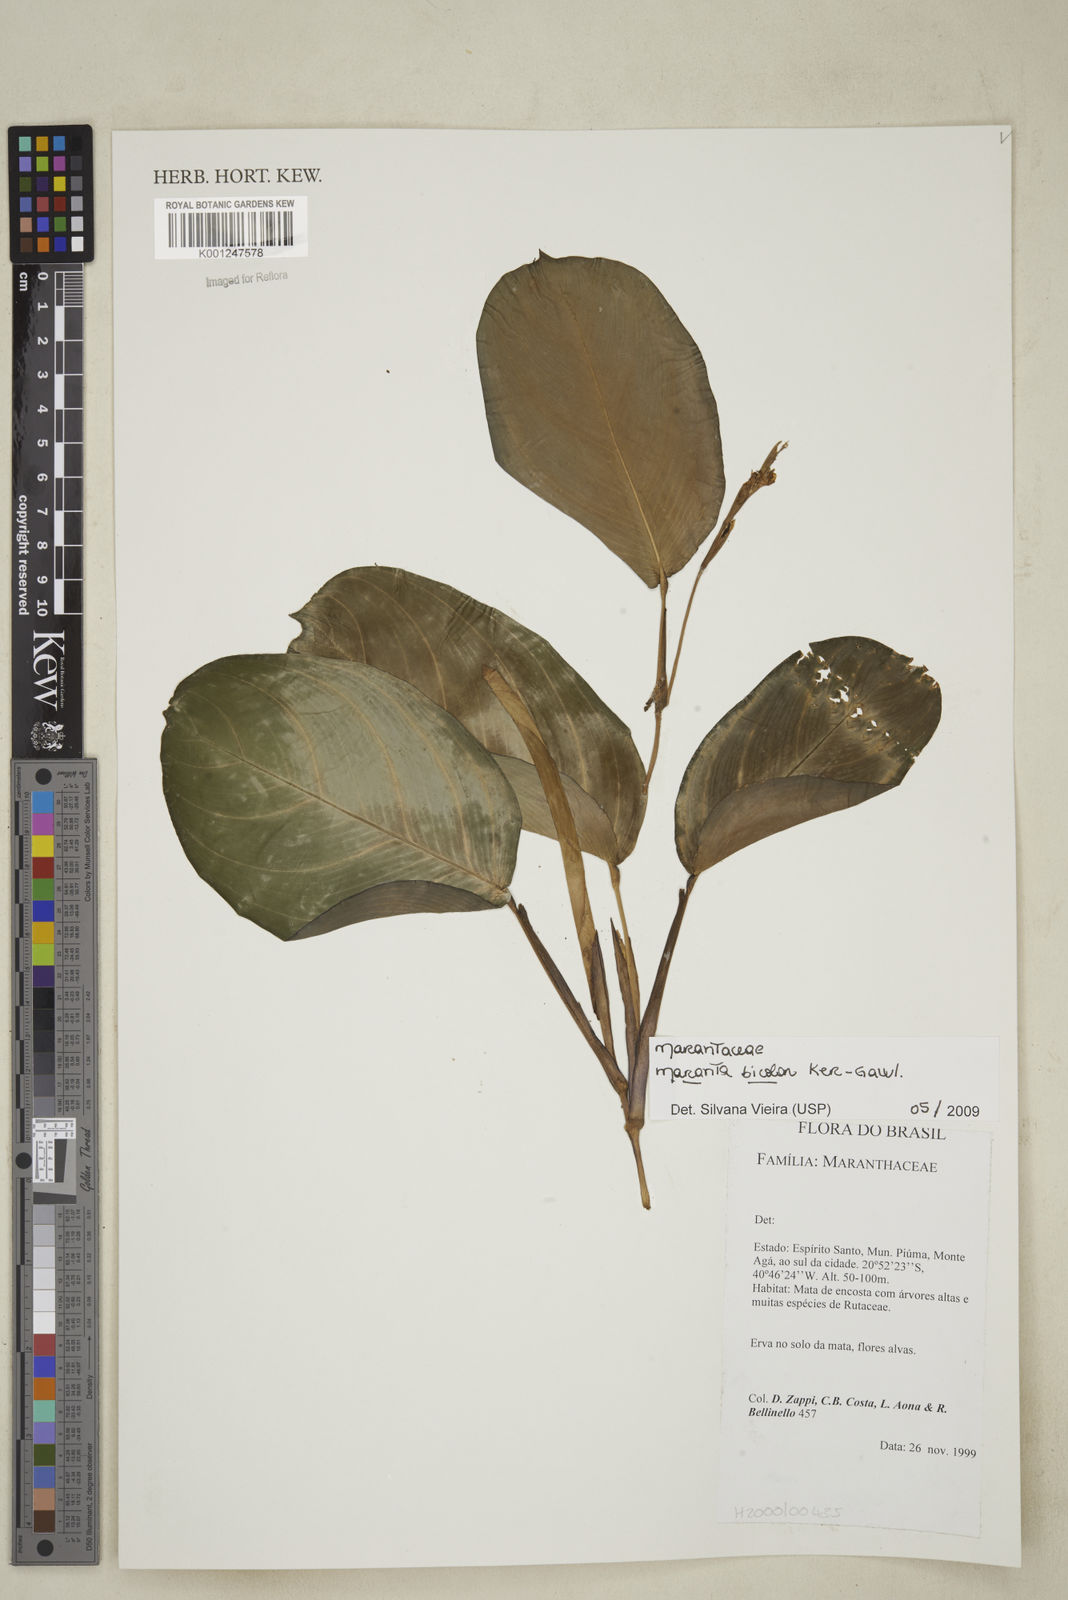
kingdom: Plantae
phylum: Tracheophyta
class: Liliopsida
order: Zingiberales
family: Marantaceae
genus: Maranta
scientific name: Maranta cristata
